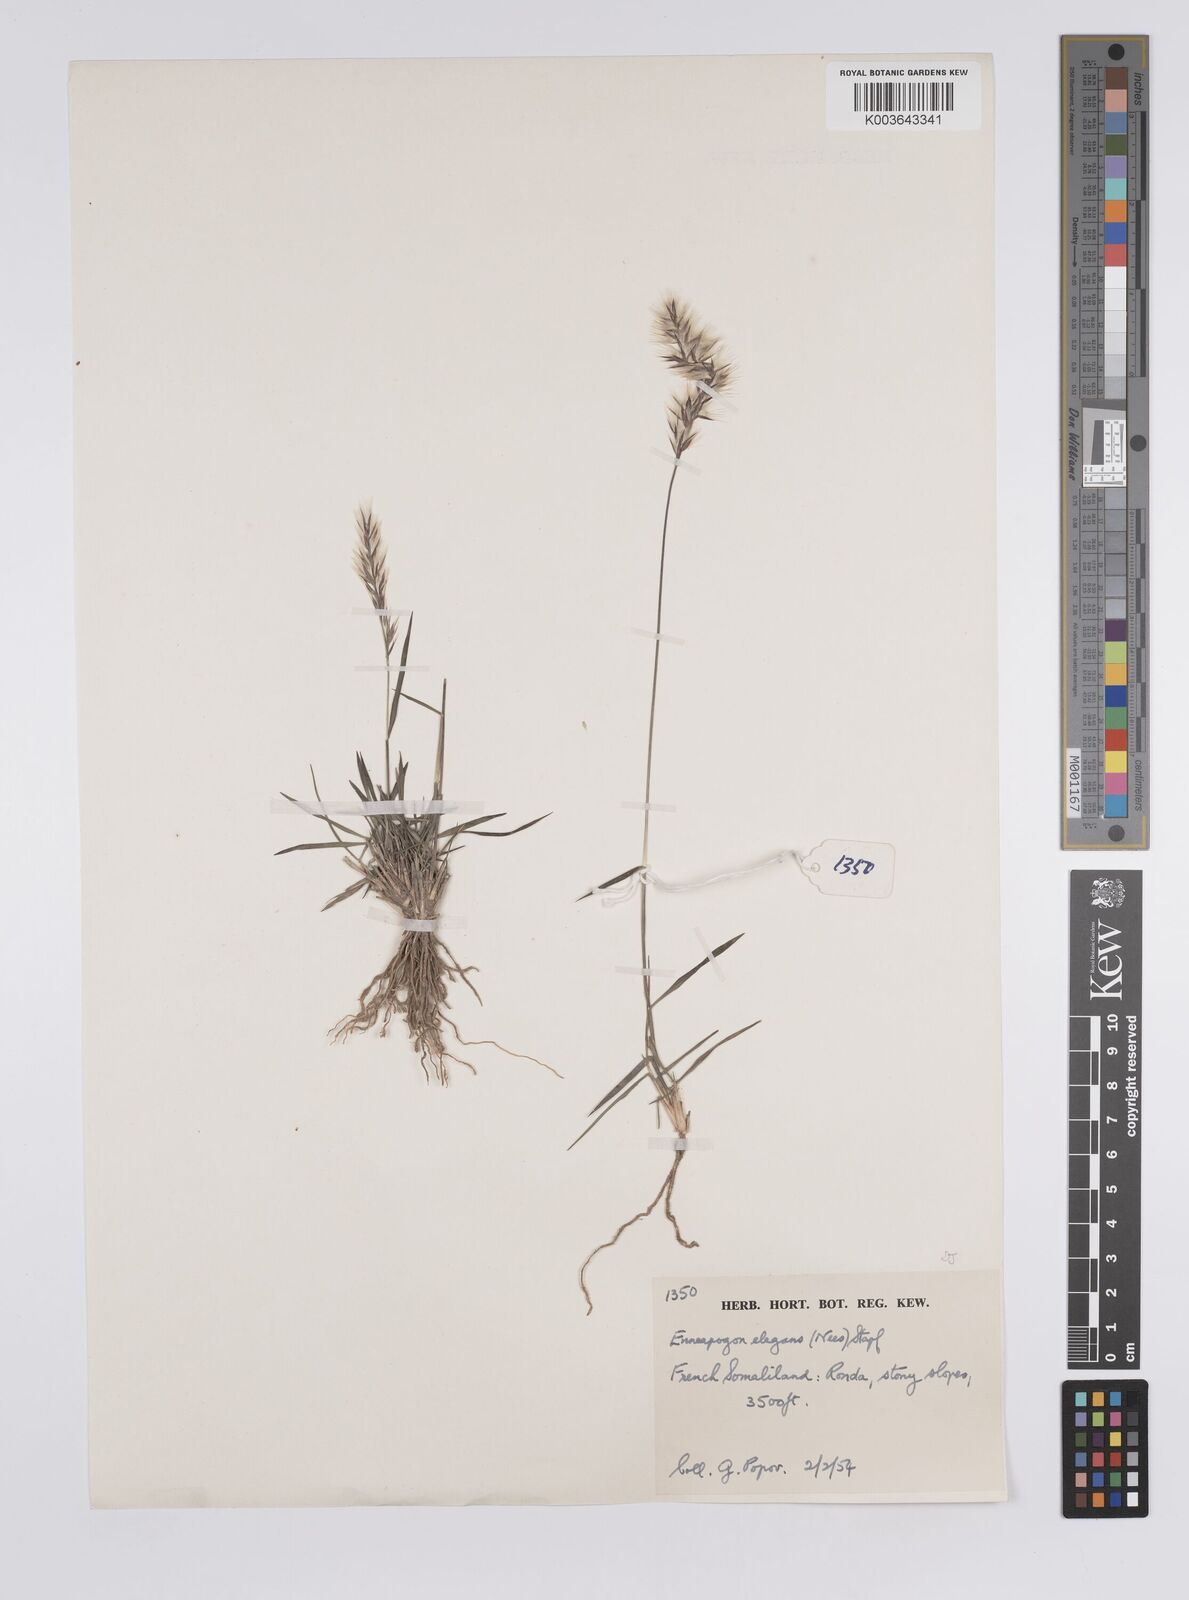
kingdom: Plantae
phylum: Tracheophyta
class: Liliopsida
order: Poales
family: Poaceae
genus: Enneapogon
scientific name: Enneapogon persicus
